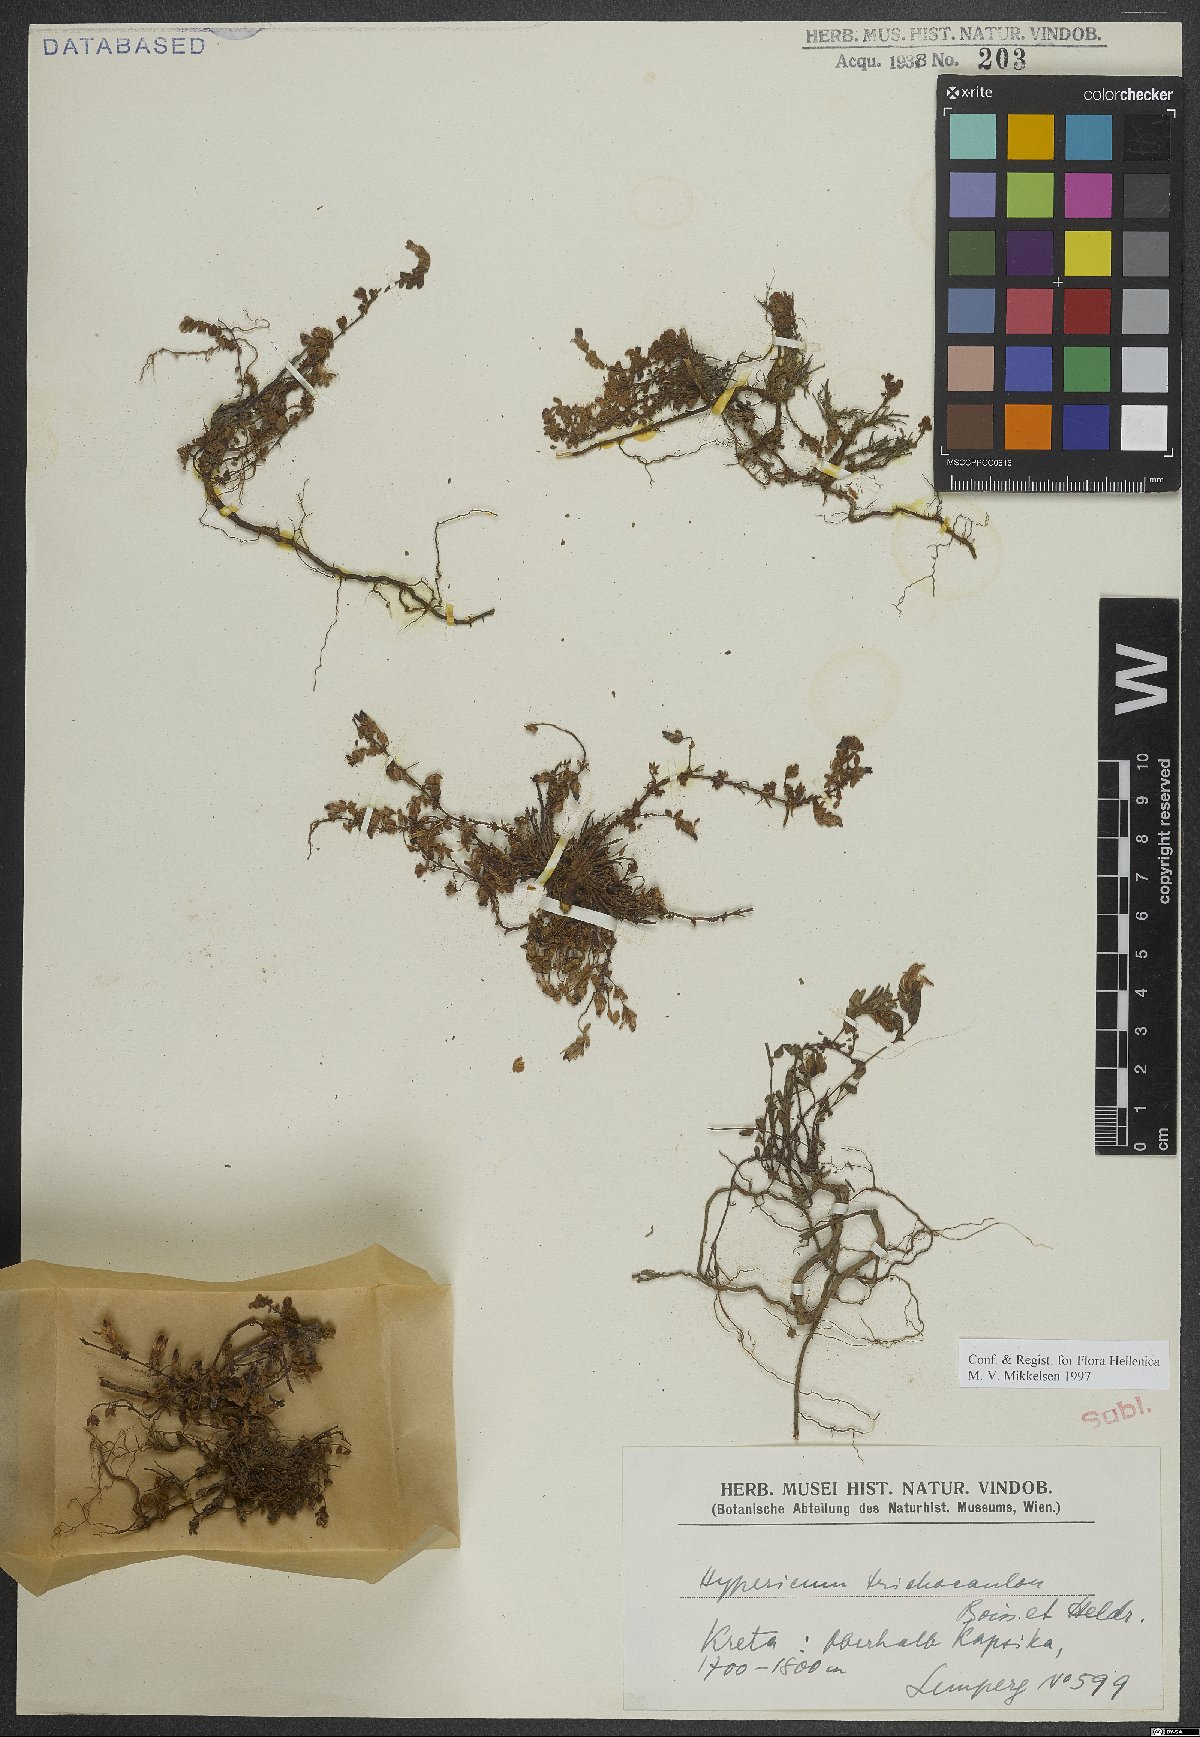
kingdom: Plantae
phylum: Tracheophyta
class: Magnoliopsida
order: Malpighiales
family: Hypericaceae
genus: Hypericum
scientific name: Hypericum trichocaulon
